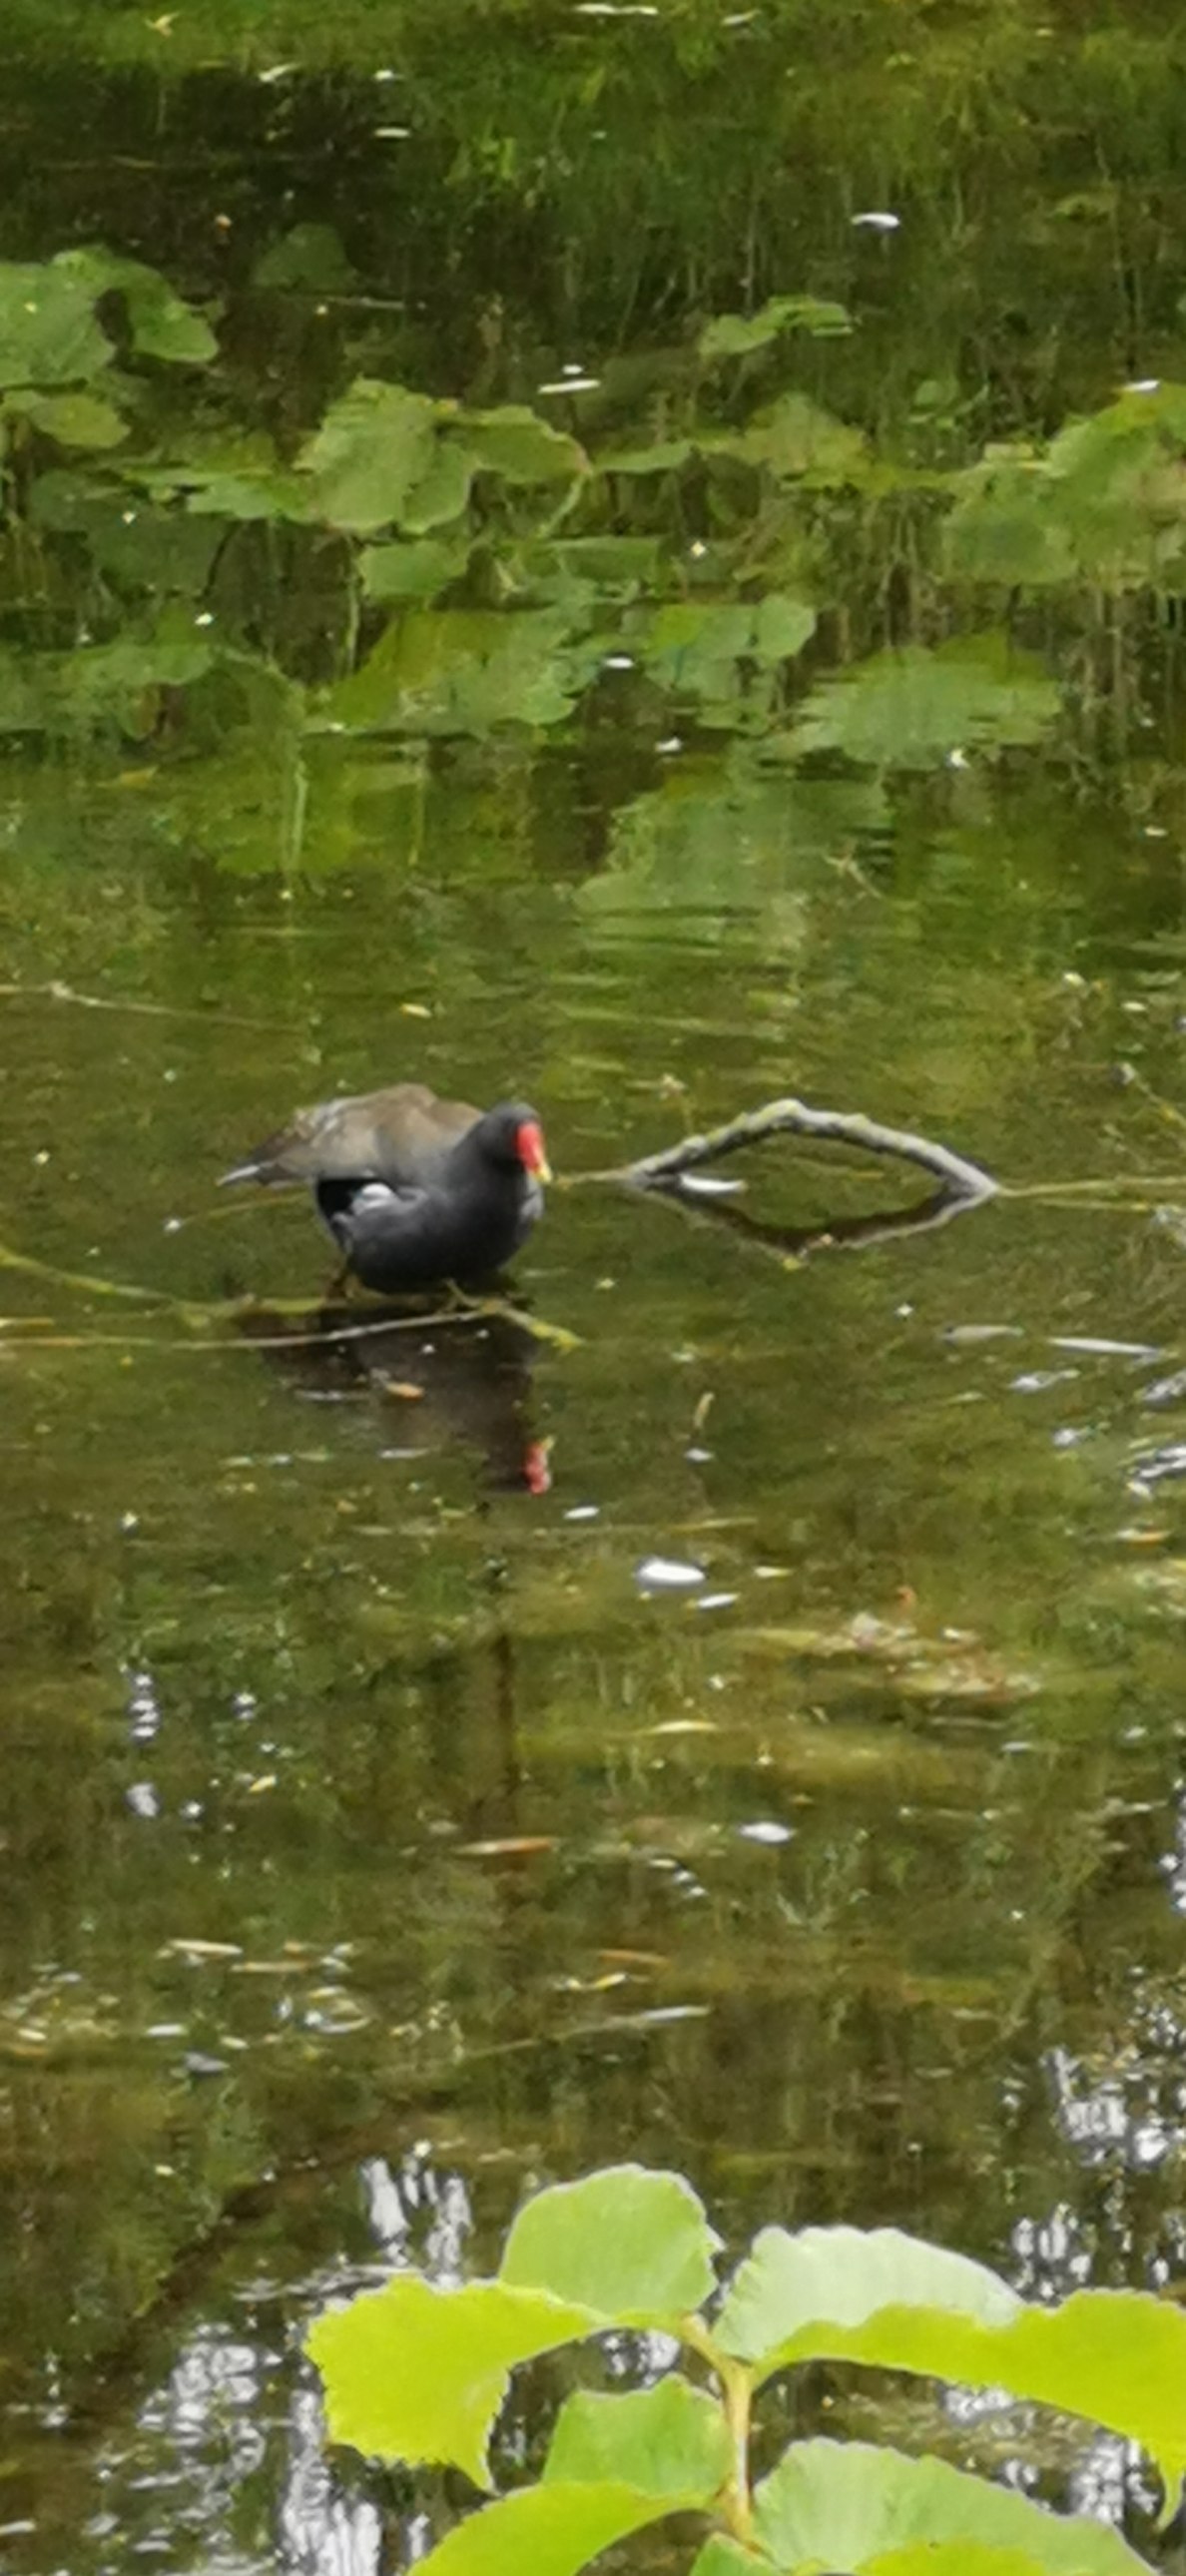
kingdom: Animalia
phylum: Chordata
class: Aves
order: Gruiformes
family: Rallidae
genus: Gallinula
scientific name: Gallinula chloropus
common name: Grønbenet rørhøne
